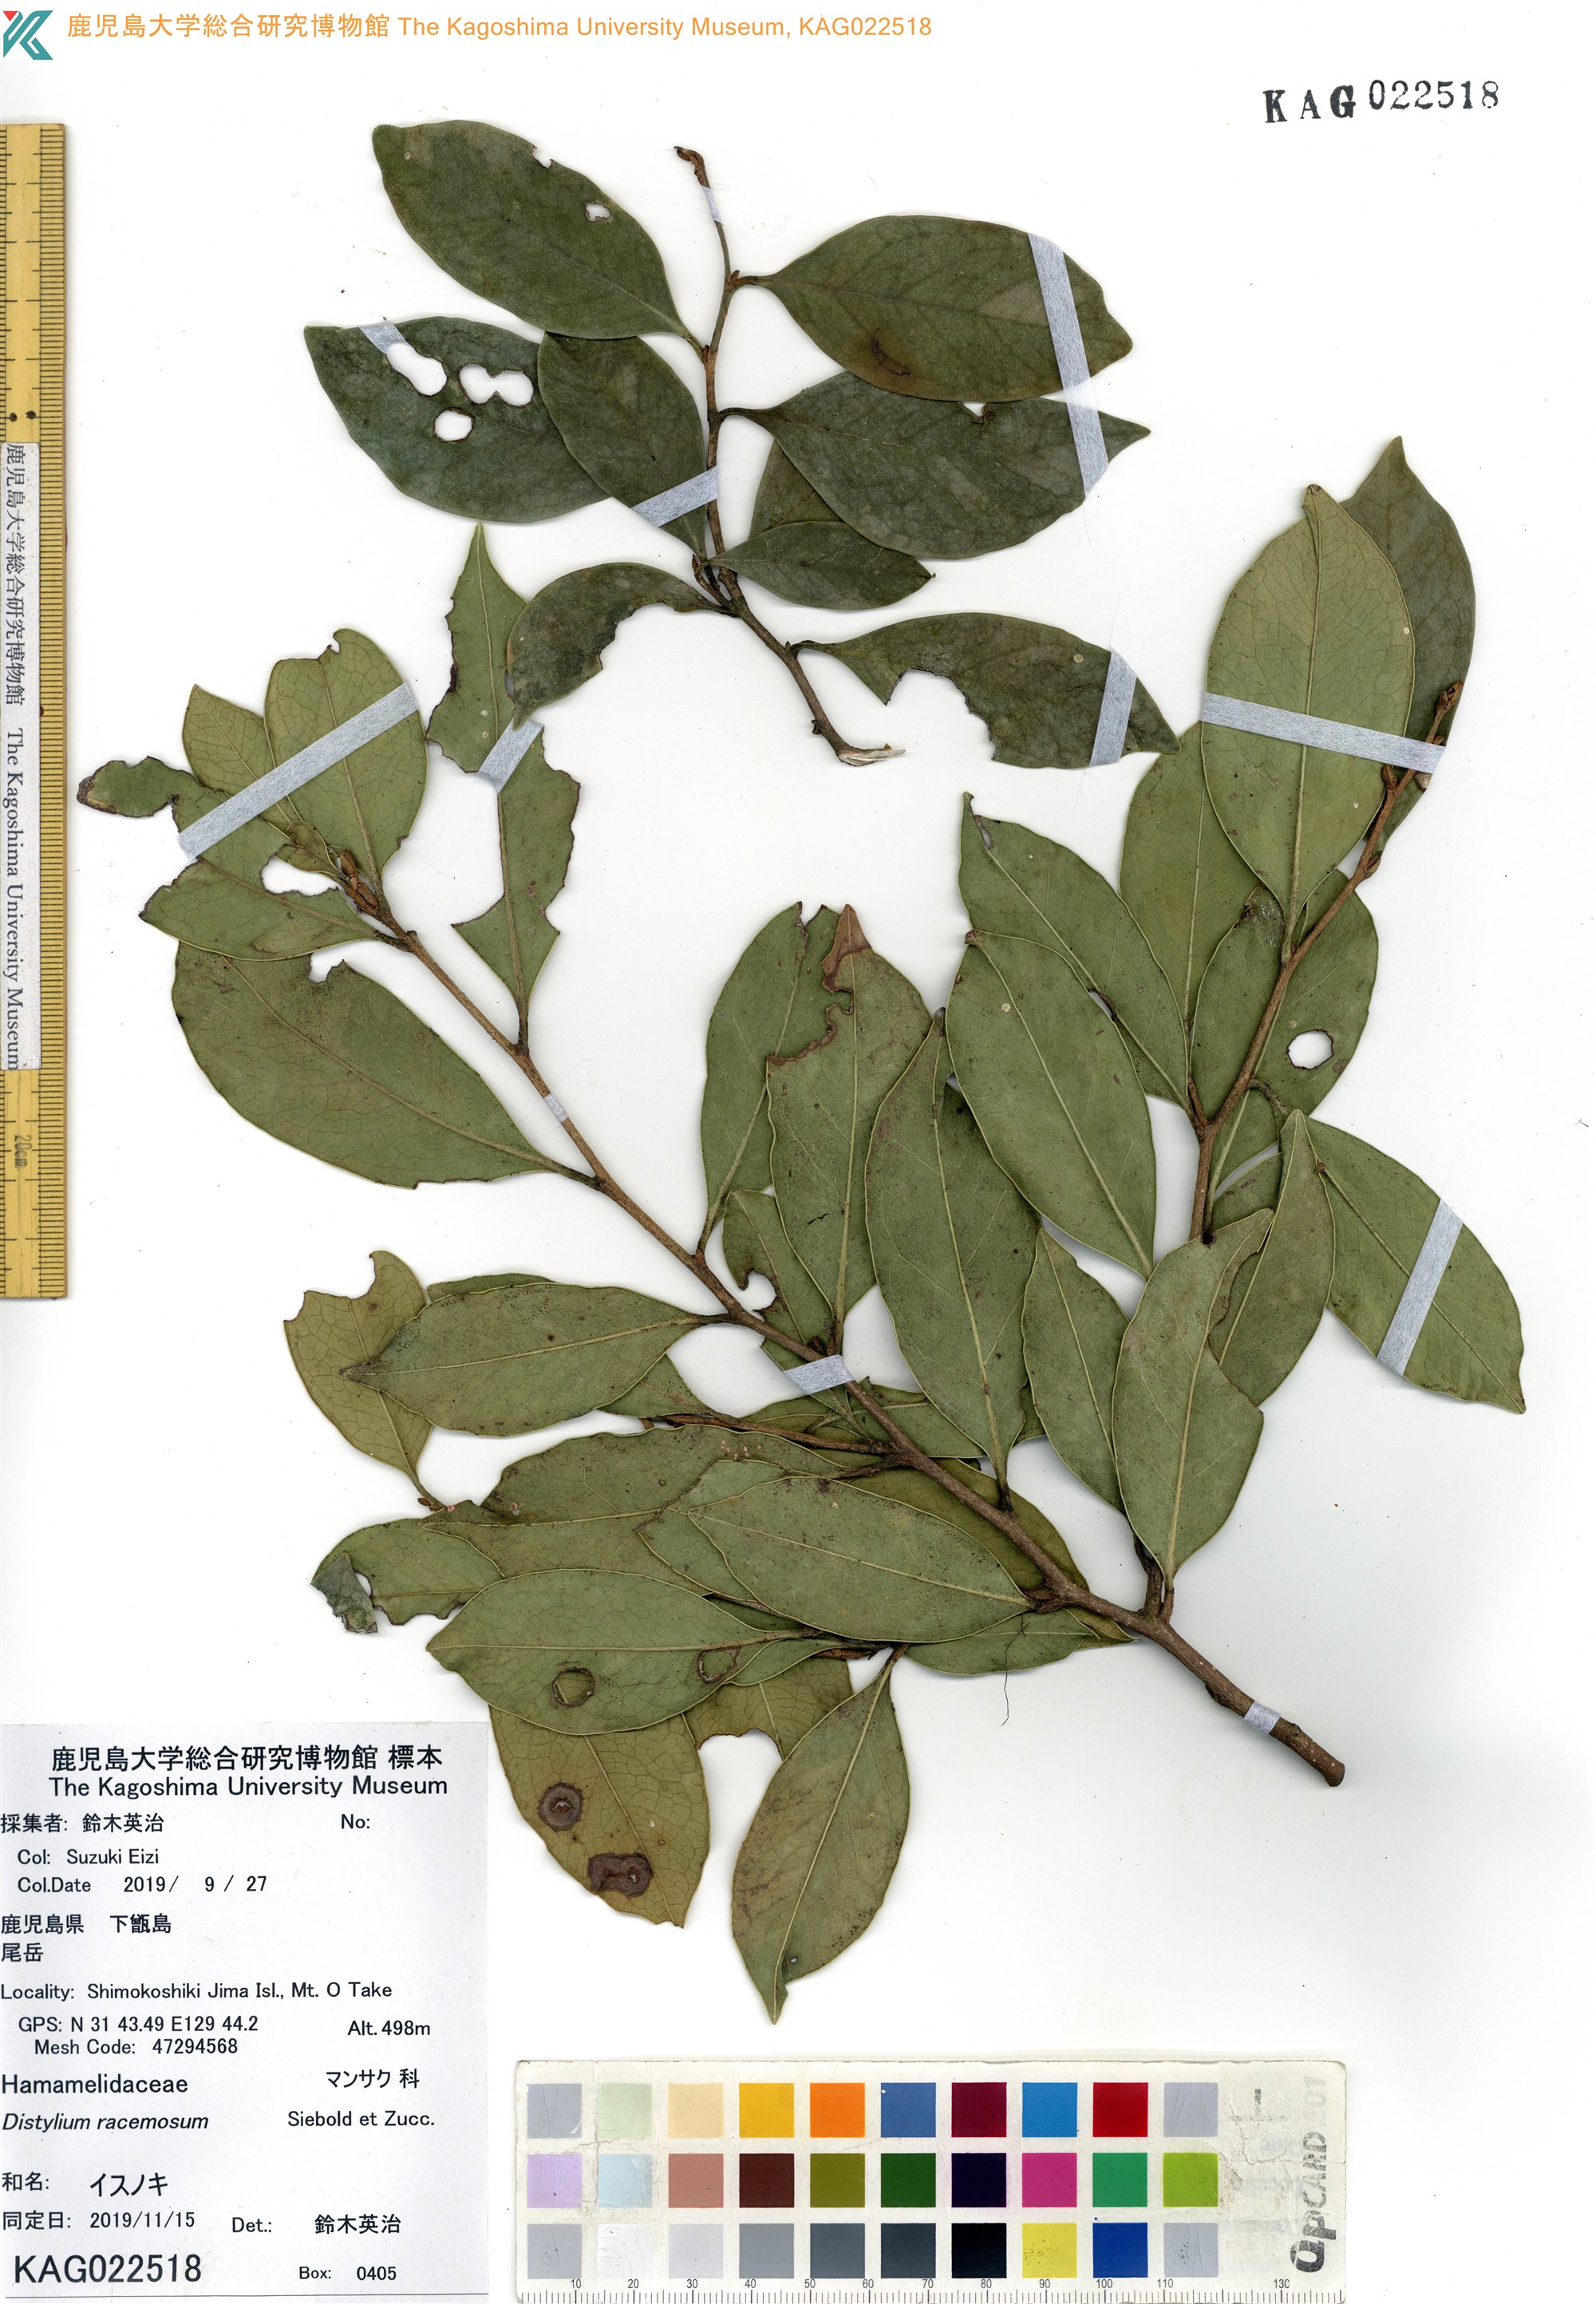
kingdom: Plantae
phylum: Tracheophyta
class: Magnoliopsida
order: Saxifragales
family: Hamamelidaceae
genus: Distylium
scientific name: Distylium racemosum
